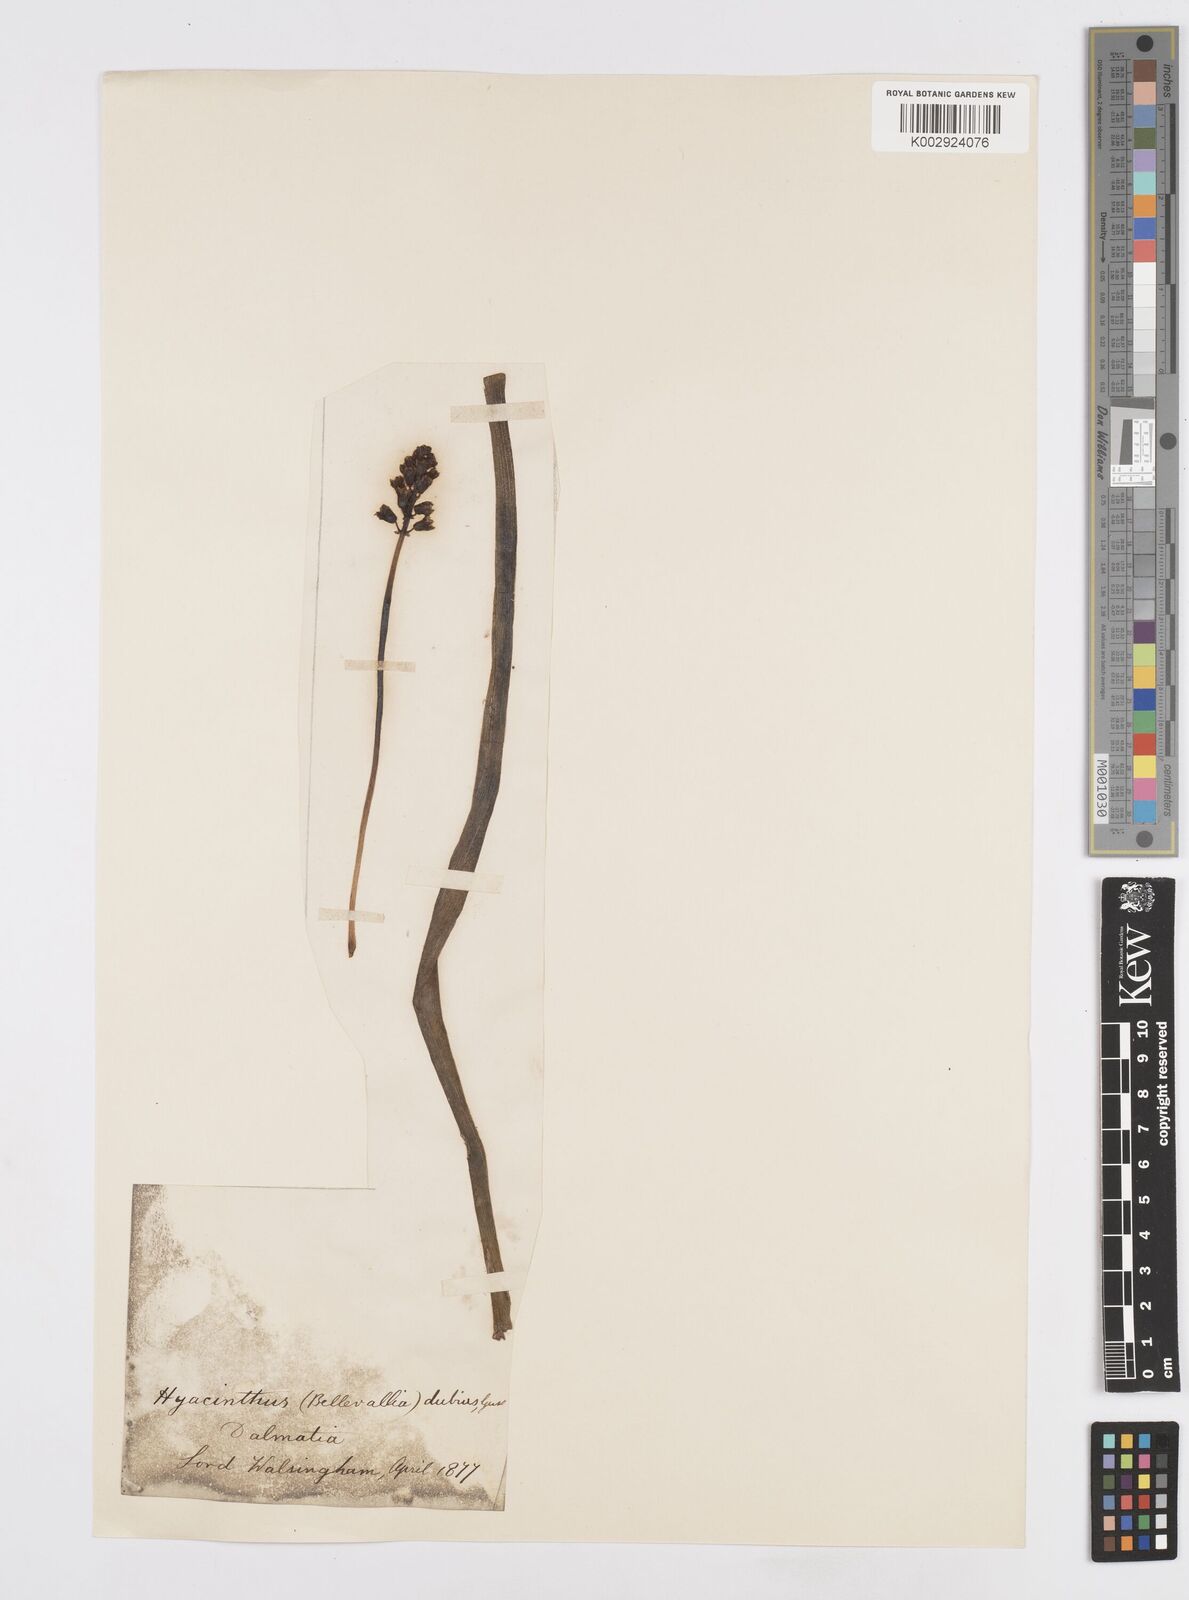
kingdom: Plantae
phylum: Tracheophyta
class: Liliopsida
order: Asparagales
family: Asparagaceae
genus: Bellevalia
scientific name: Bellevalia dubia
